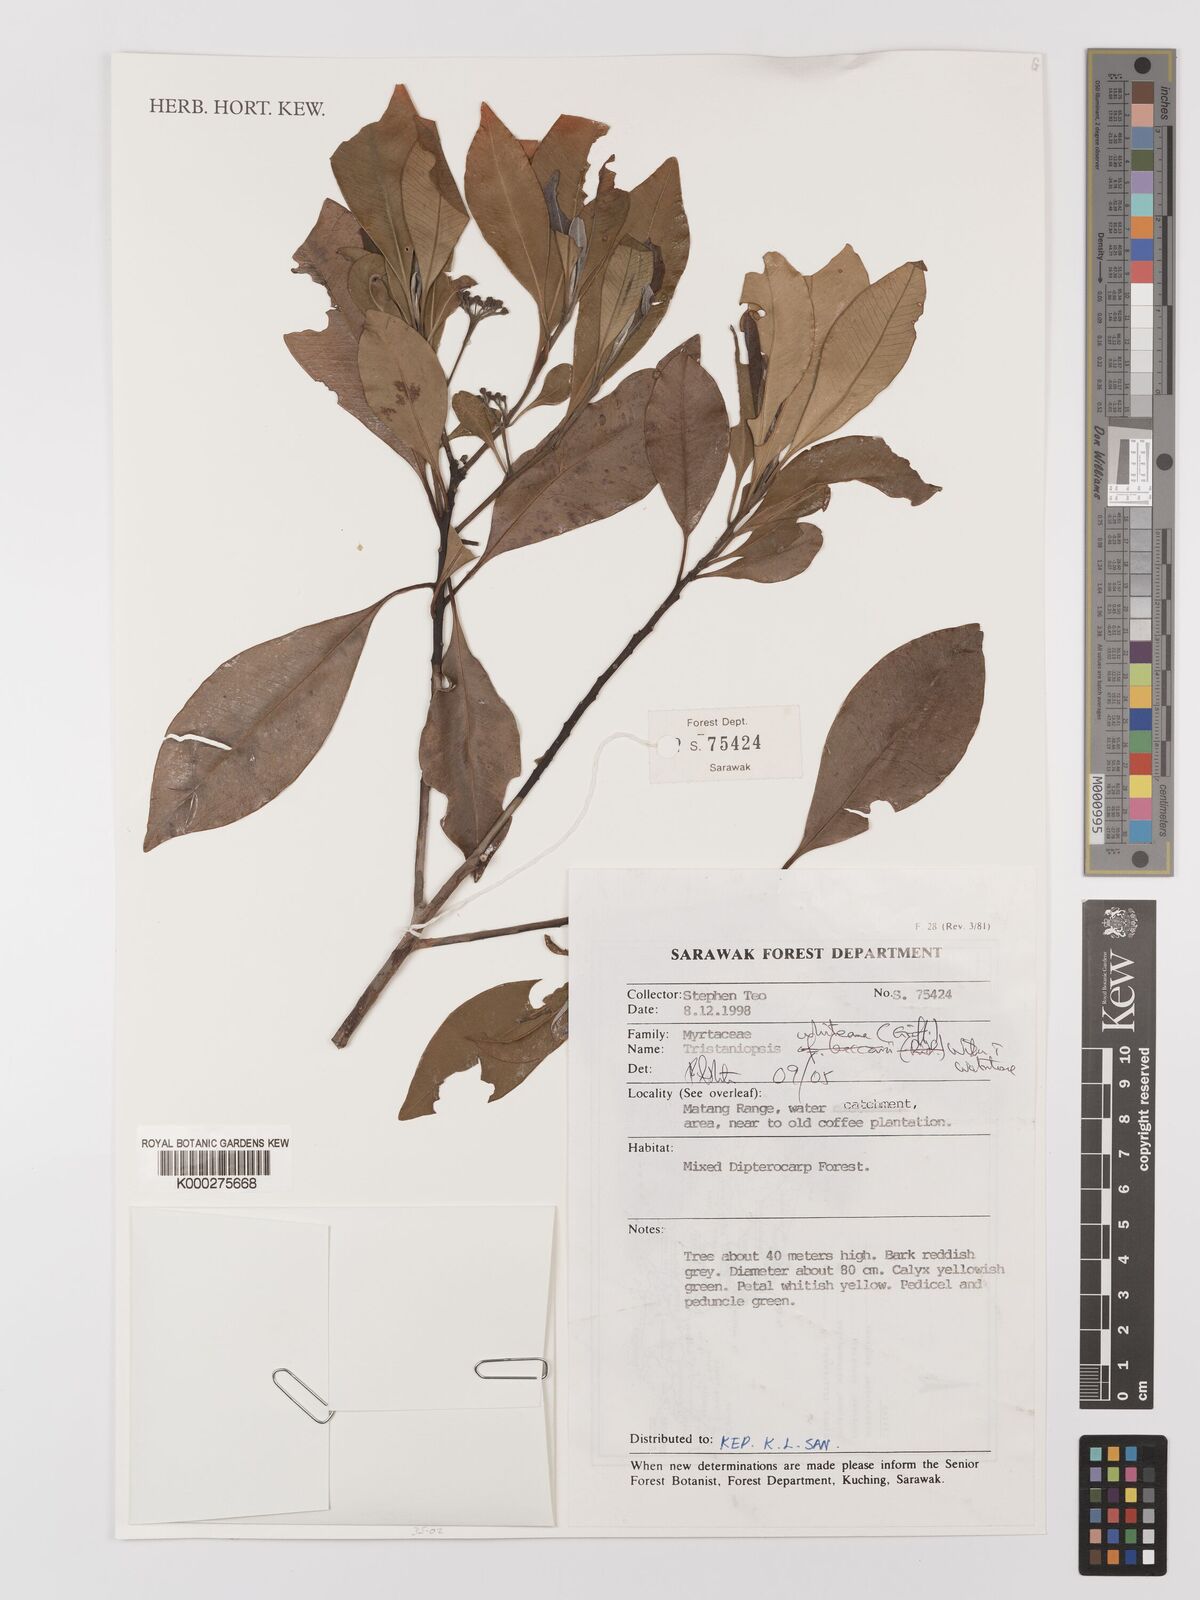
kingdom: Plantae
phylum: Tracheophyta
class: Magnoliopsida
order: Myrtales
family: Myrtaceae
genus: Tristaniopsis
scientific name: Tristaniopsis whiteana
